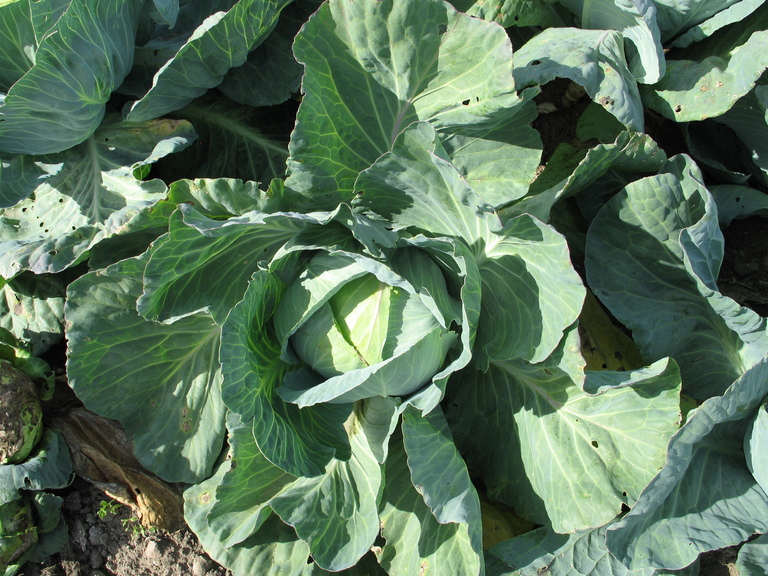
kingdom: Plantae
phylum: Tracheophyta
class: Magnoliopsida
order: Brassicales
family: Brassicaceae
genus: Brassica
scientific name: Brassica oleracea
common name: Cabbage
